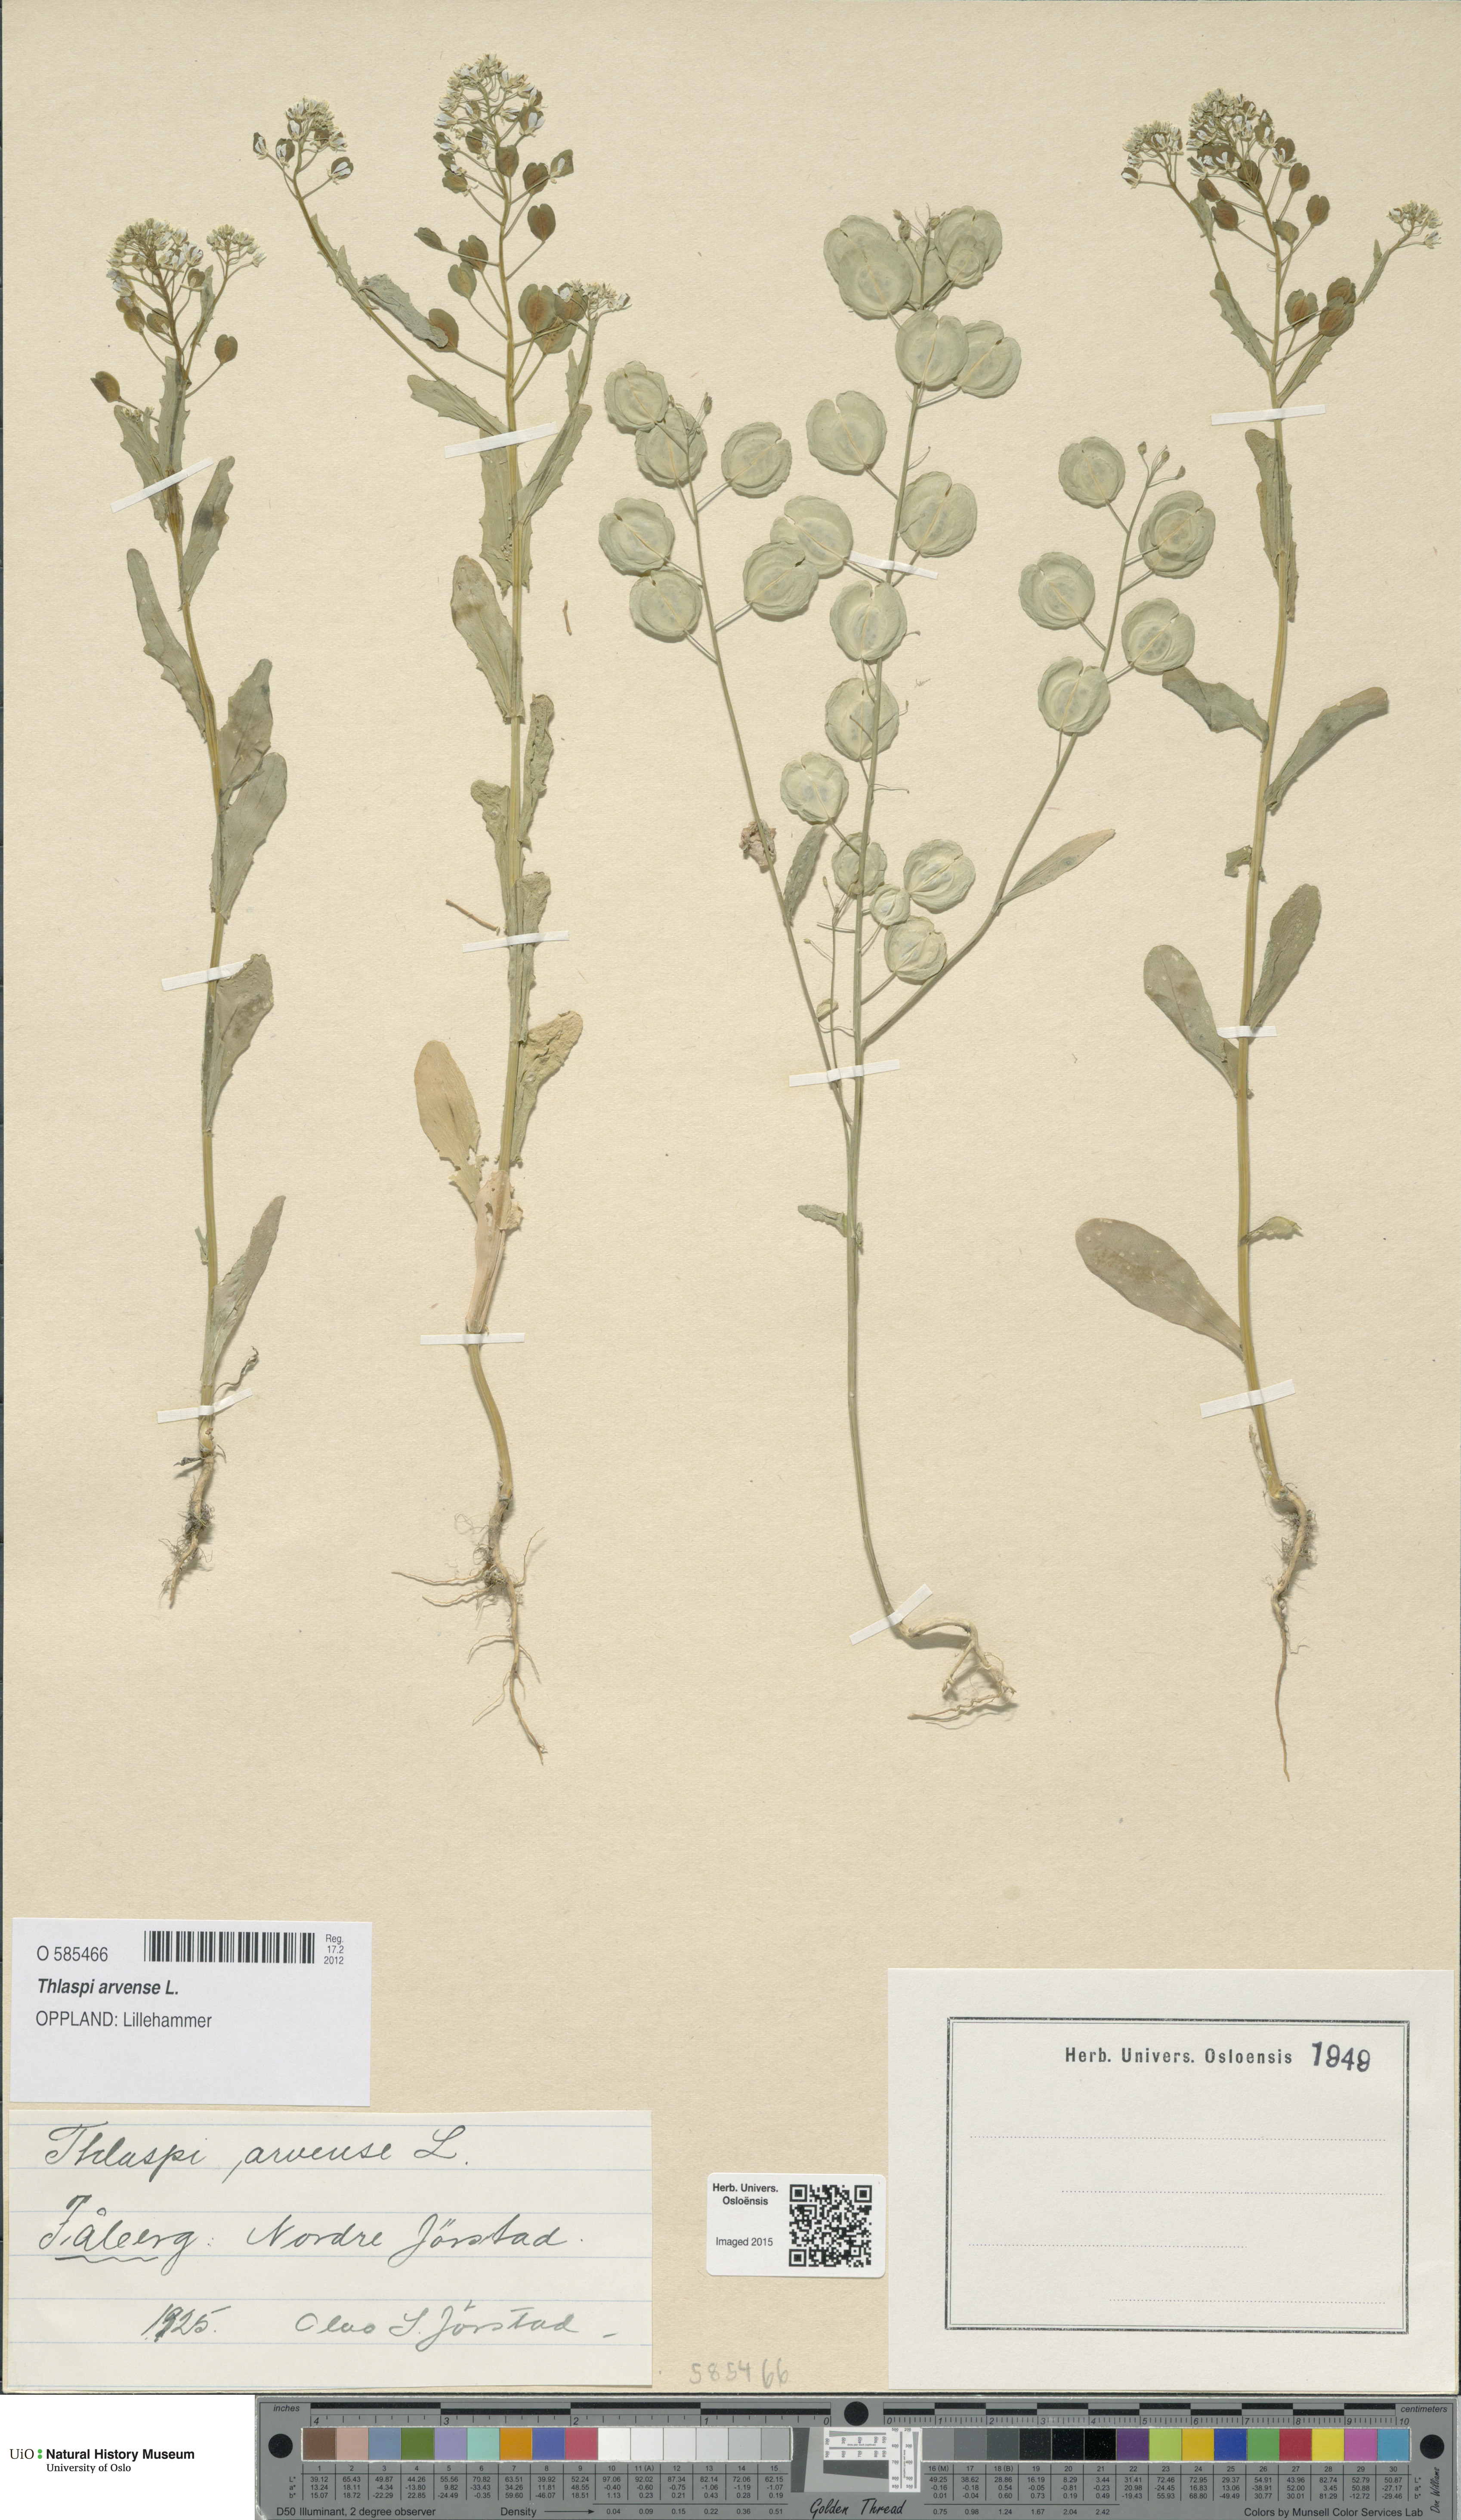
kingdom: Plantae
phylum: Tracheophyta
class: Magnoliopsida
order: Brassicales
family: Brassicaceae
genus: Thlaspi
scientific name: Thlaspi arvense
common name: Field pennycress
